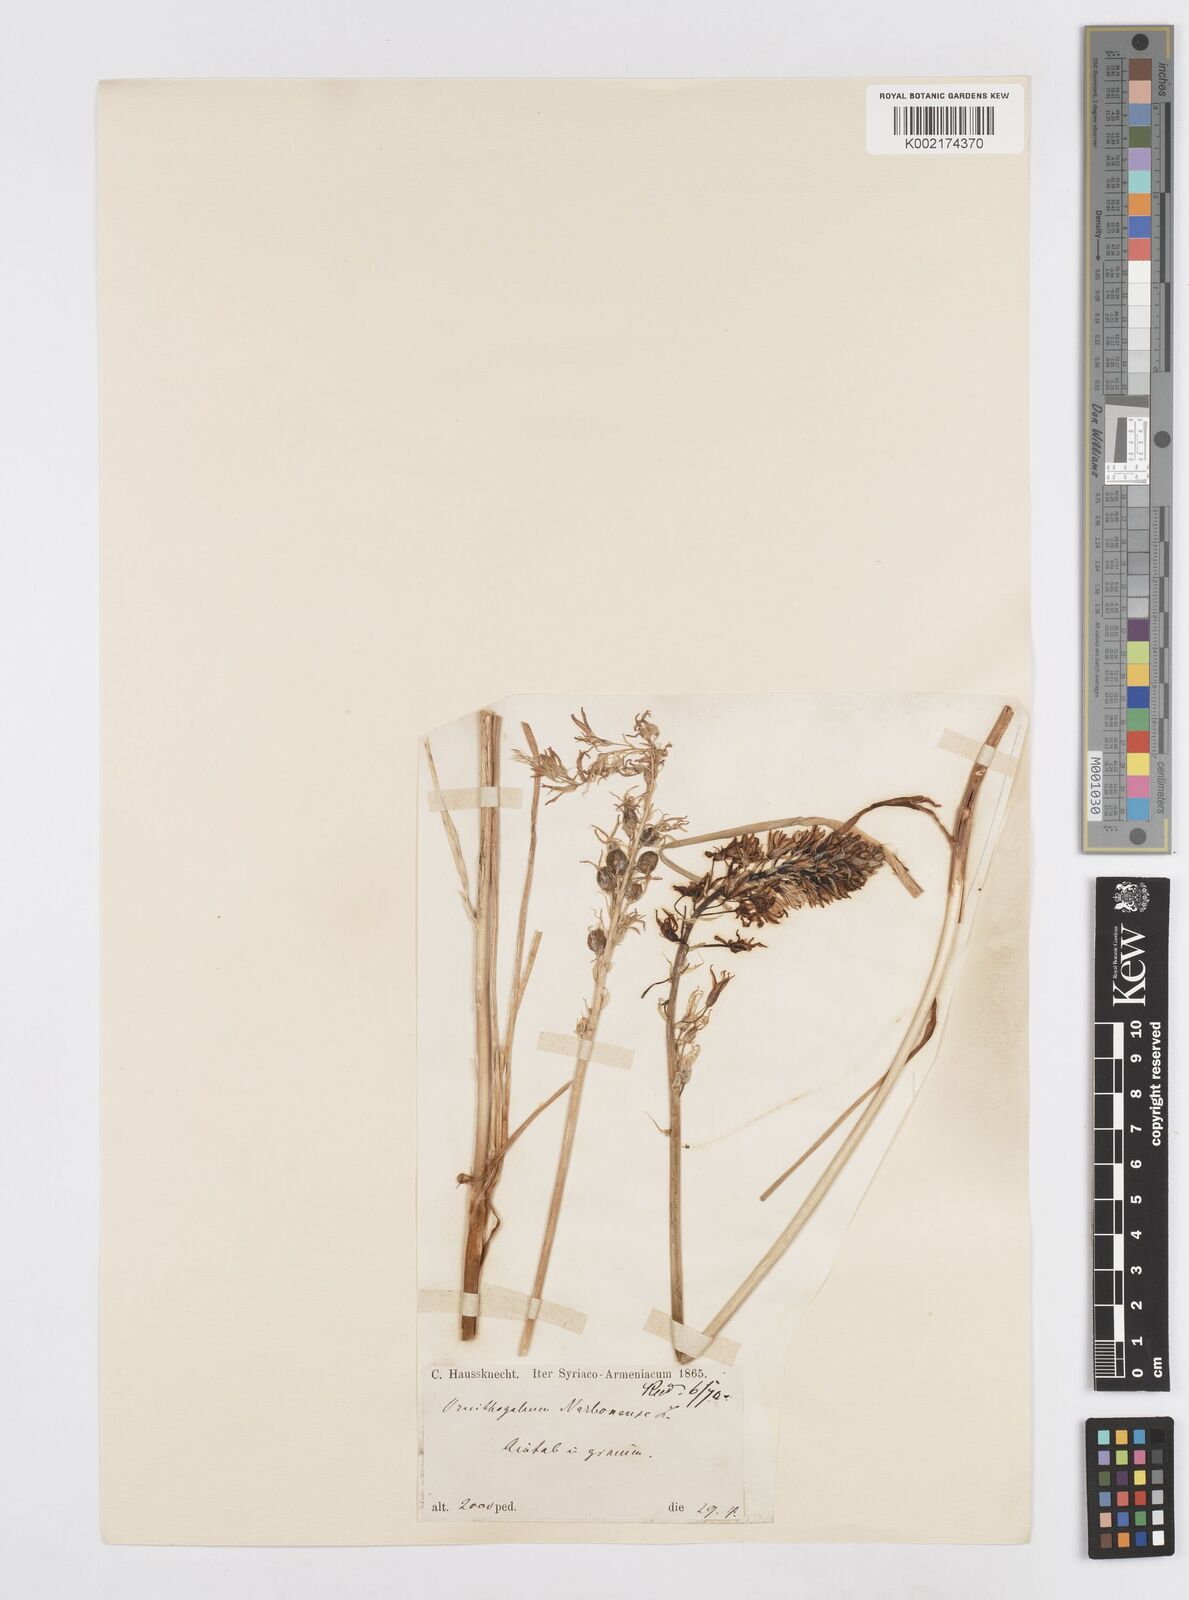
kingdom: Plantae
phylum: Tracheophyta
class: Liliopsida
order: Asparagales
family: Asparagaceae
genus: Ornithogalum
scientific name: Ornithogalum narbonense
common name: Bath-asparagus
